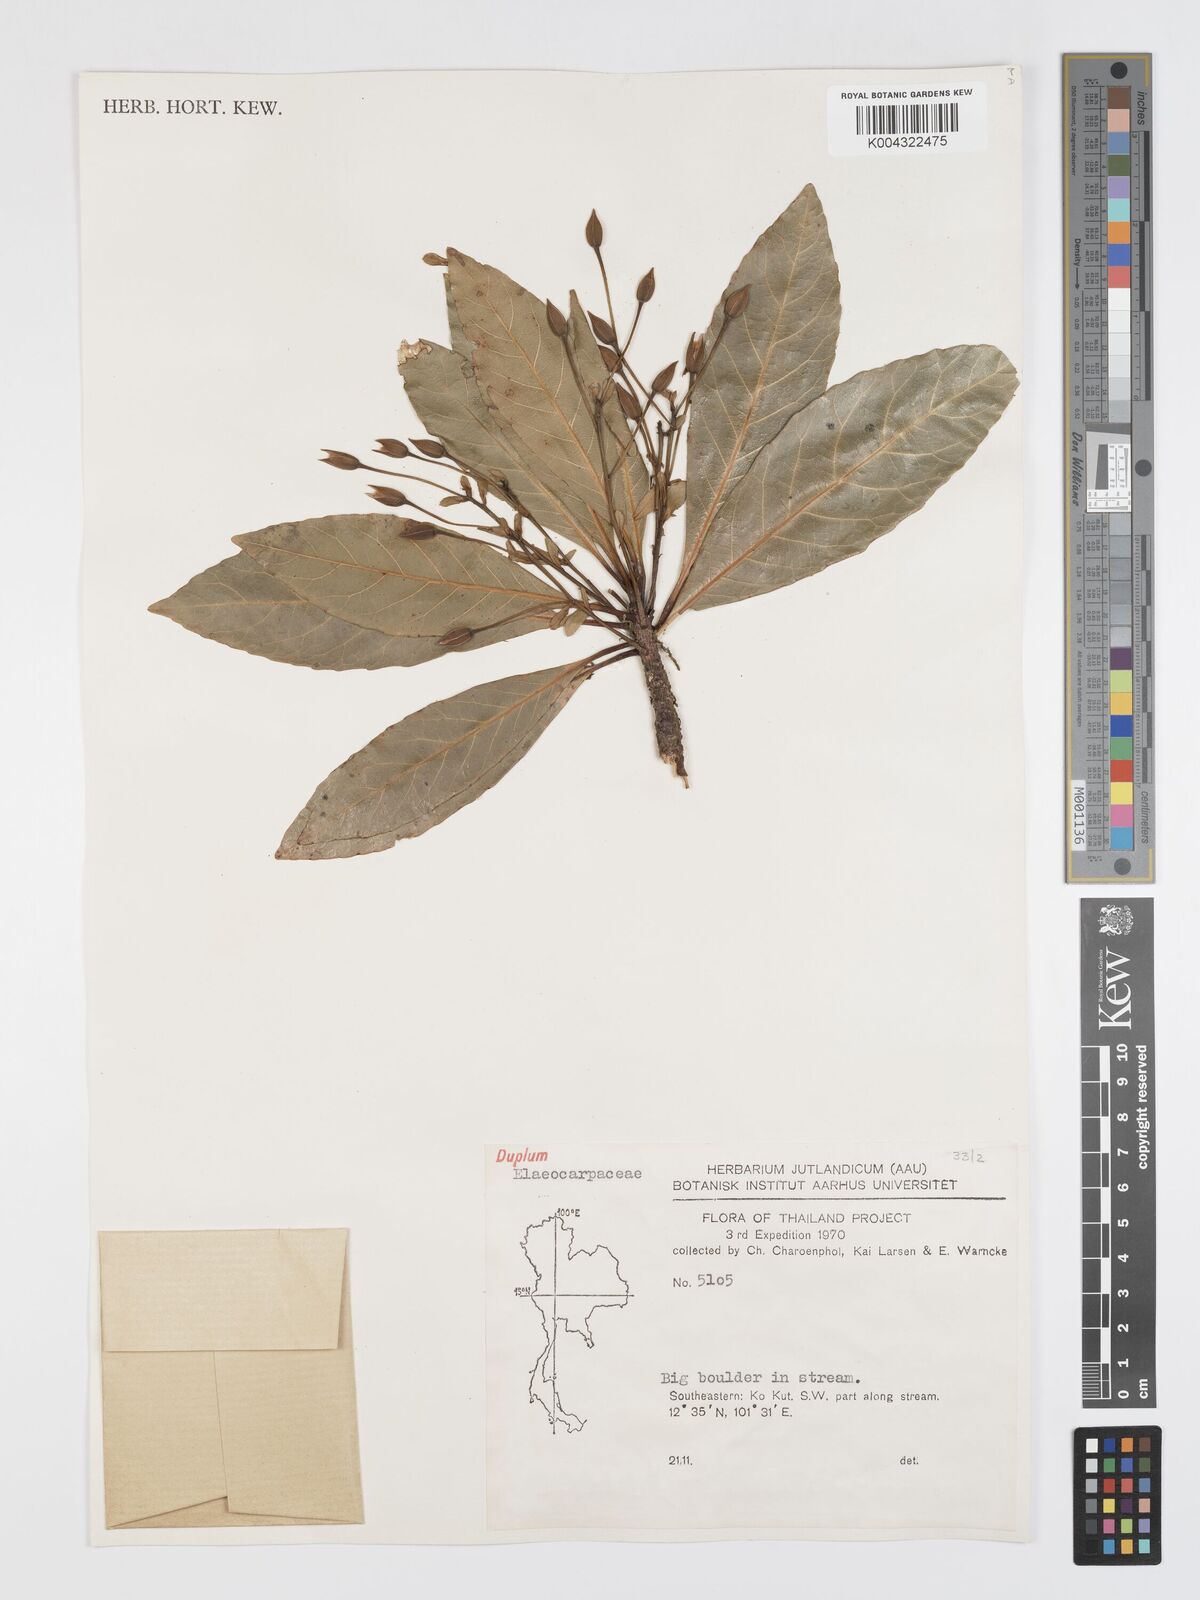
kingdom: Plantae
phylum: Tracheophyta
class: Magnoliopsida
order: Oxalidales
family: Elaeocarpaceae
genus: Elaeocarpus
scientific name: Elaeocarpus grandiflorus
